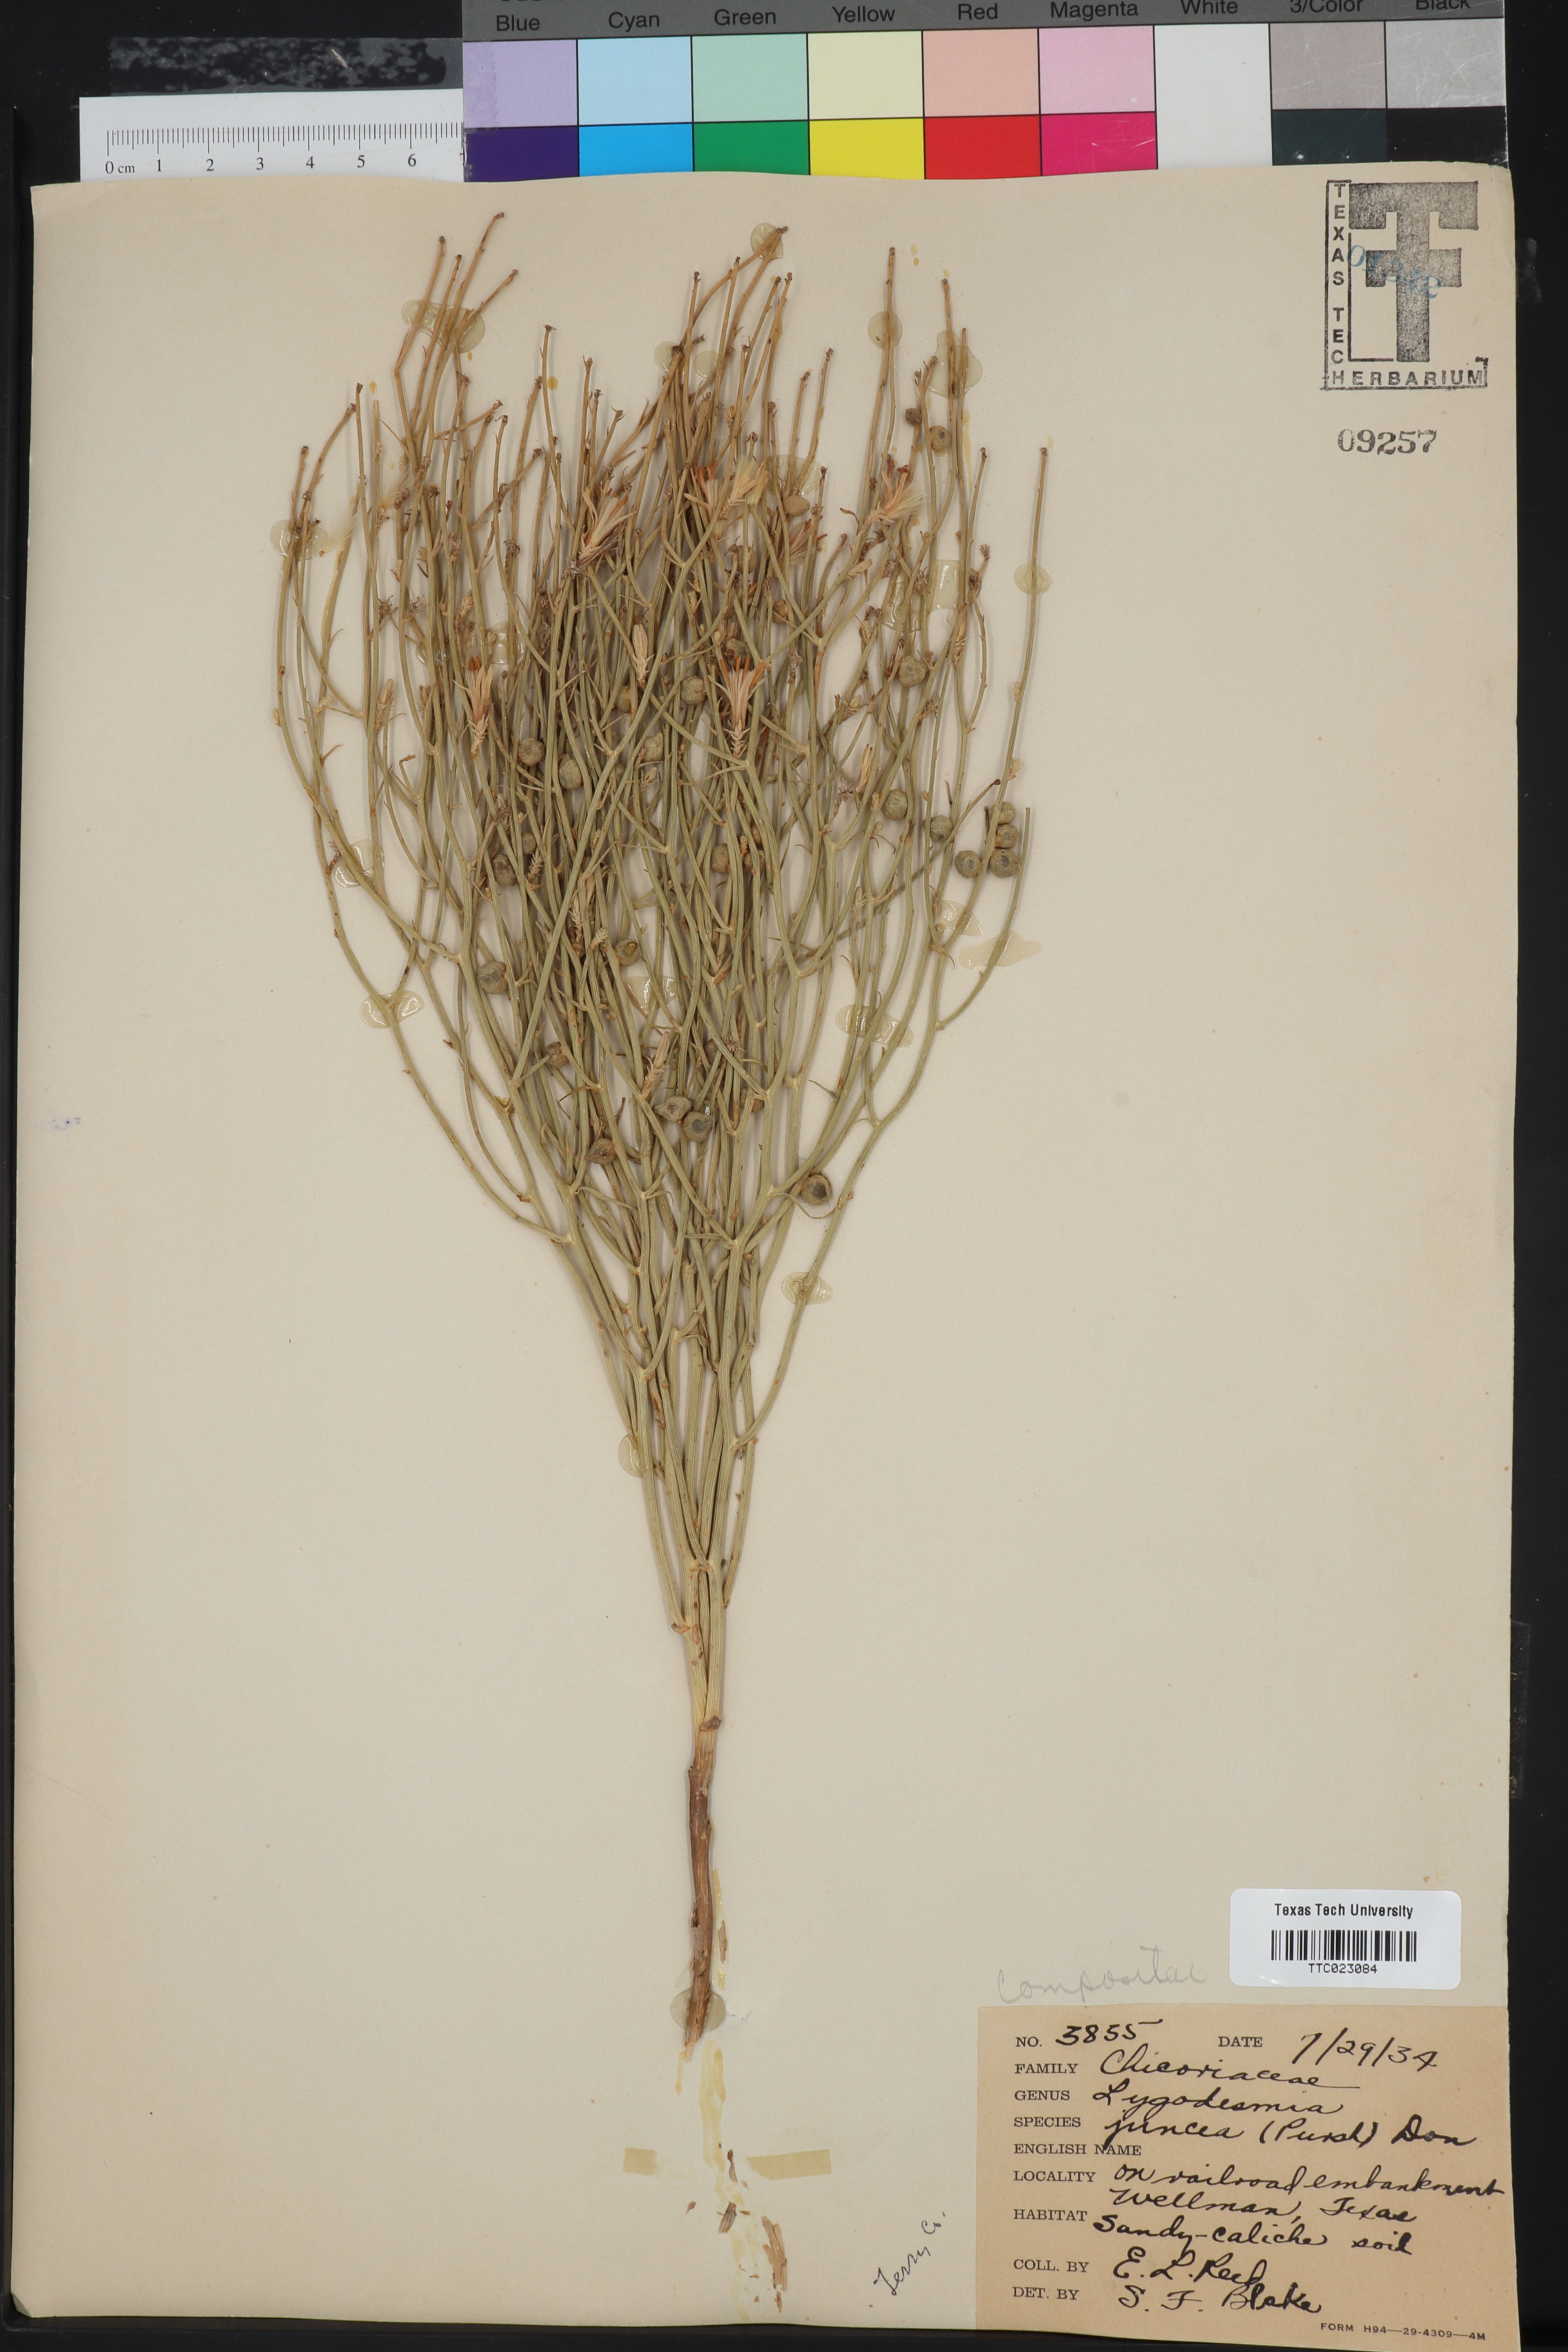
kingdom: Plantae
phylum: Tracheophyta
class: Magnoliopsida
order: Asterales
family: Asteraceae
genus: Lygodesmia
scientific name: Lygodesmia juncea
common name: Common skeletonweed
